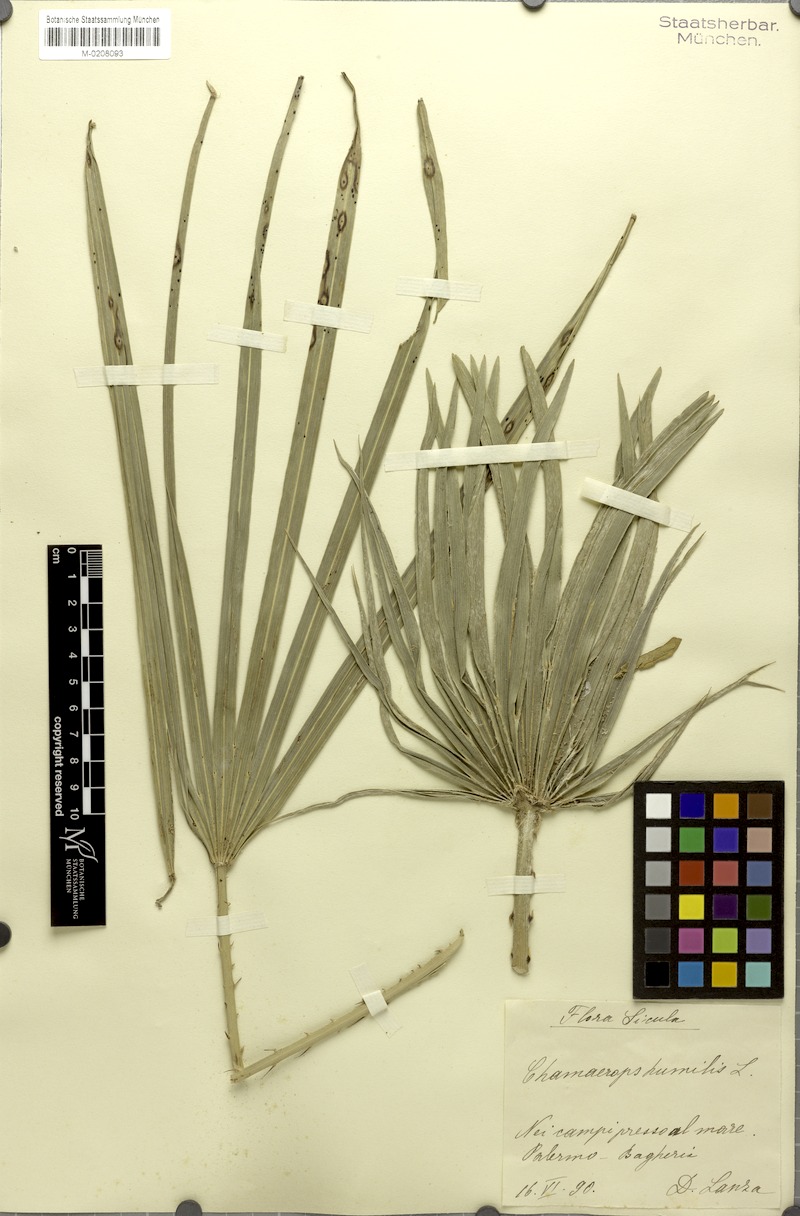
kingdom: Plantae
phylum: Tracheophyta
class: Liliopsida
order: Arecales
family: Arecaceae
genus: Chamaerops
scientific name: Chamaerops humilis
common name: Dwarf fan palm
